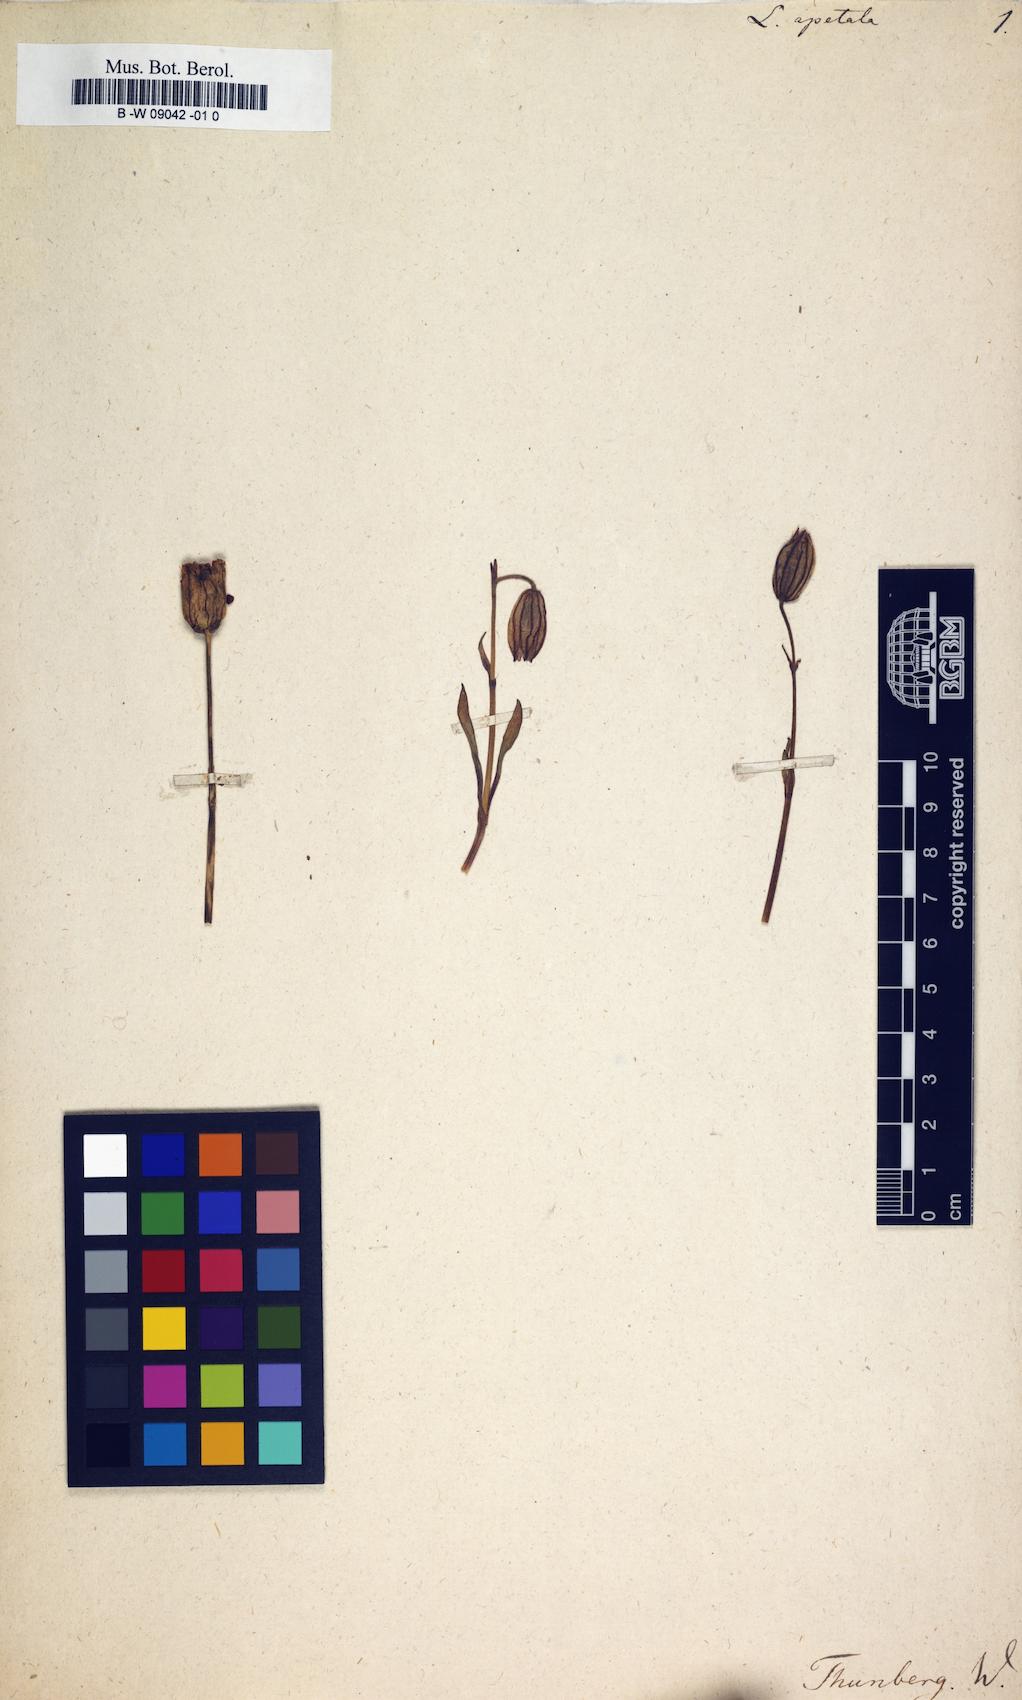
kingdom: Plantae
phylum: Tracheophyta
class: Magnoliopsida
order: Caryophyllales
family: Caryophyllaceae
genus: Silene
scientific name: Silene
